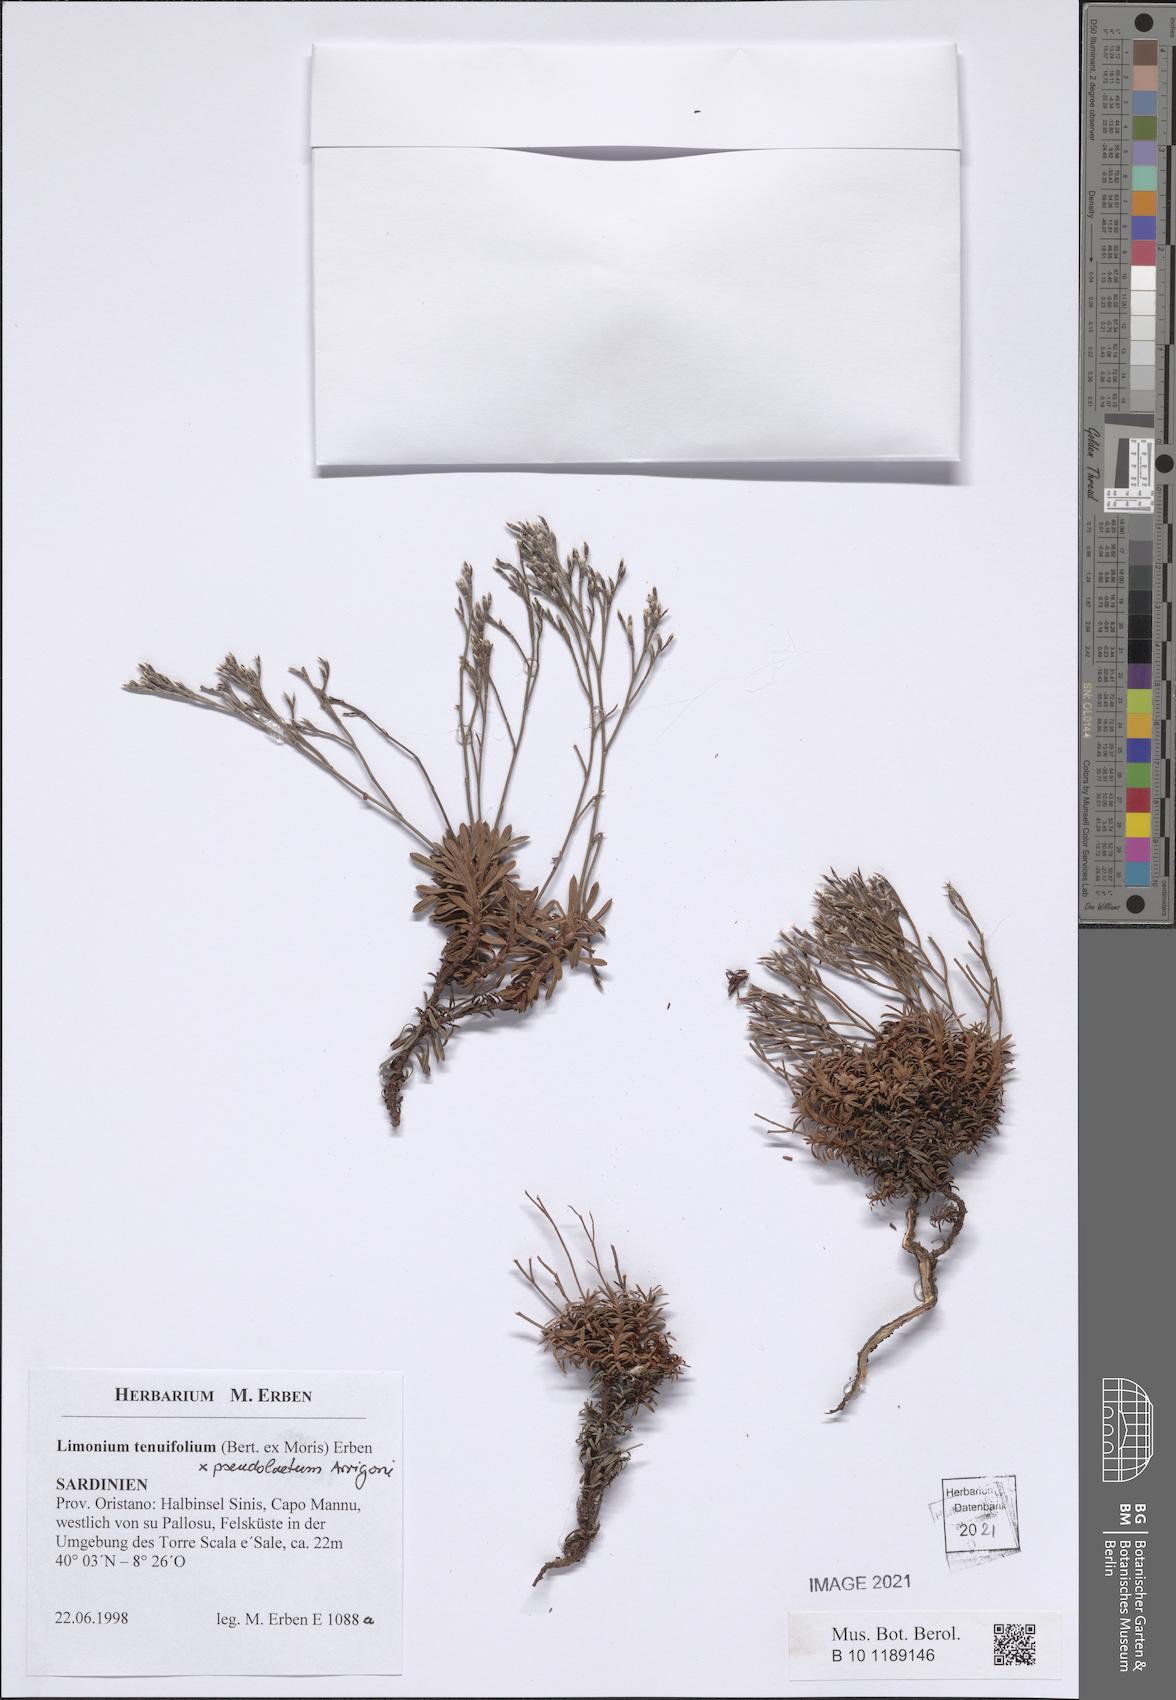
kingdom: Plantae
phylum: Tracheophyta
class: Magnoliopsida
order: Caryophyllales
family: Plumbaginaceae
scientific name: Plumbaginaceae
